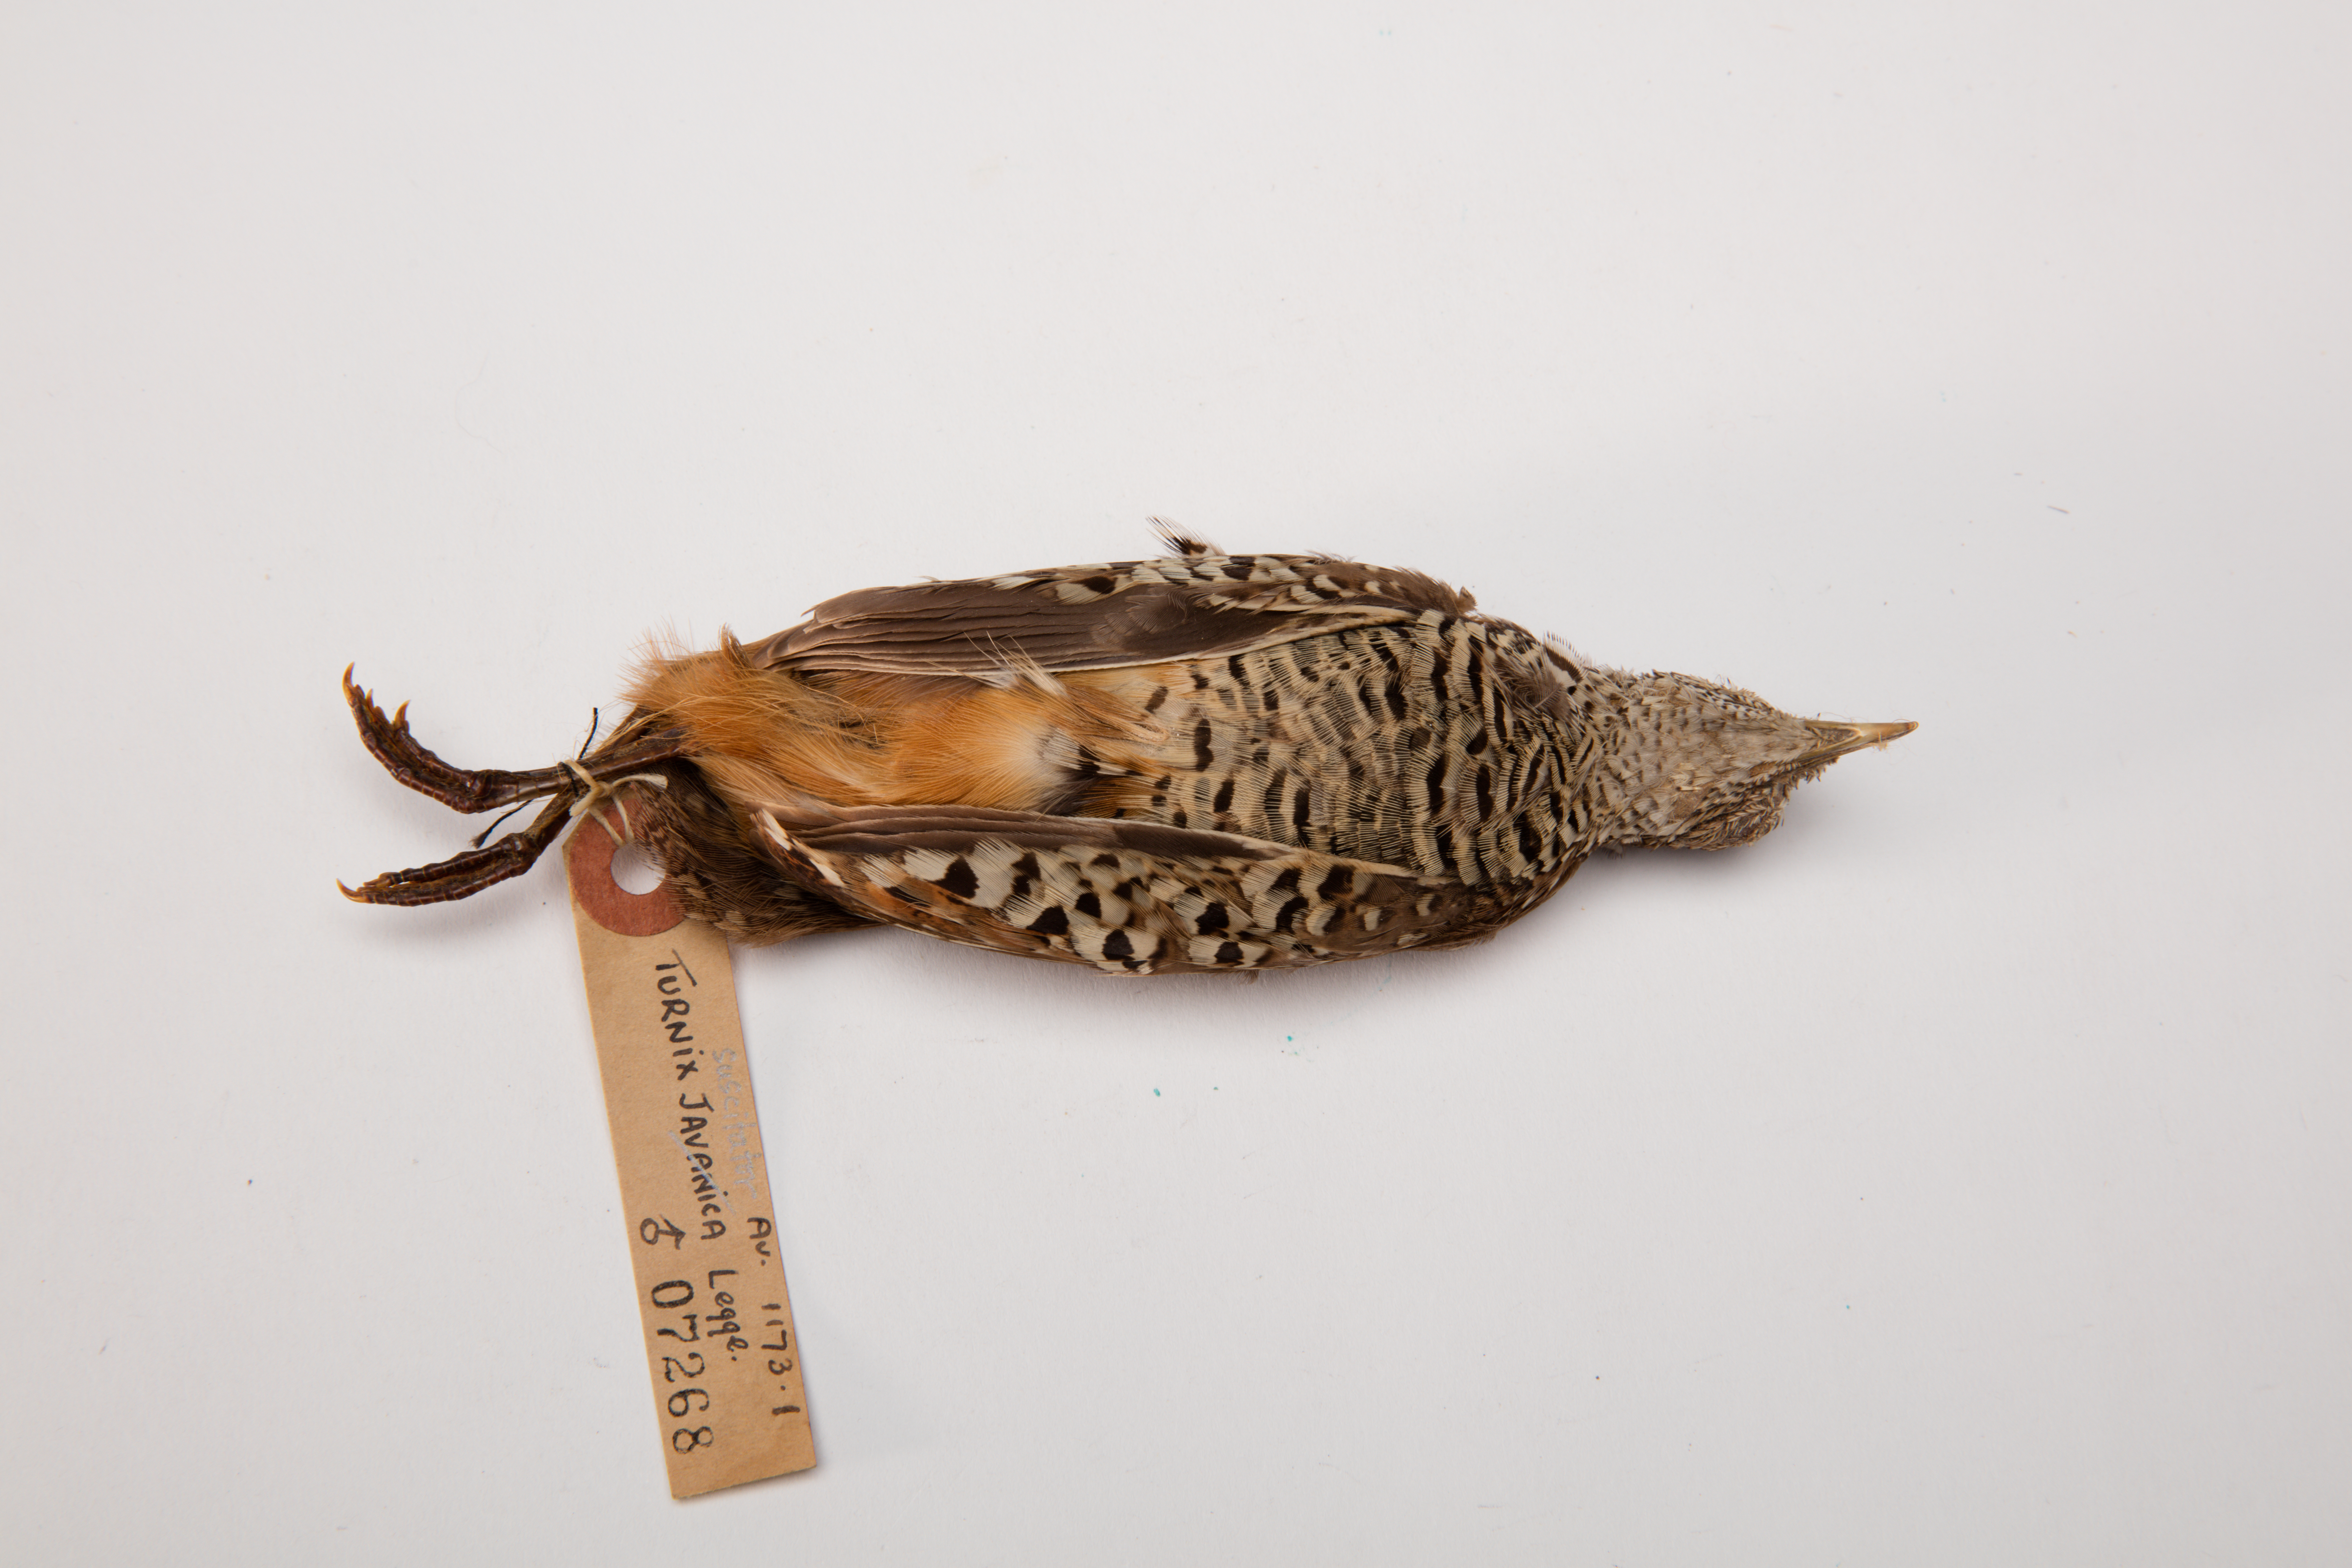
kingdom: Animalia
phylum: Chordata
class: Aves
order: Charadriiformes
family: Turnicidae
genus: Turnix
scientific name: Turnix suscitator
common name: Barred buttonquail
